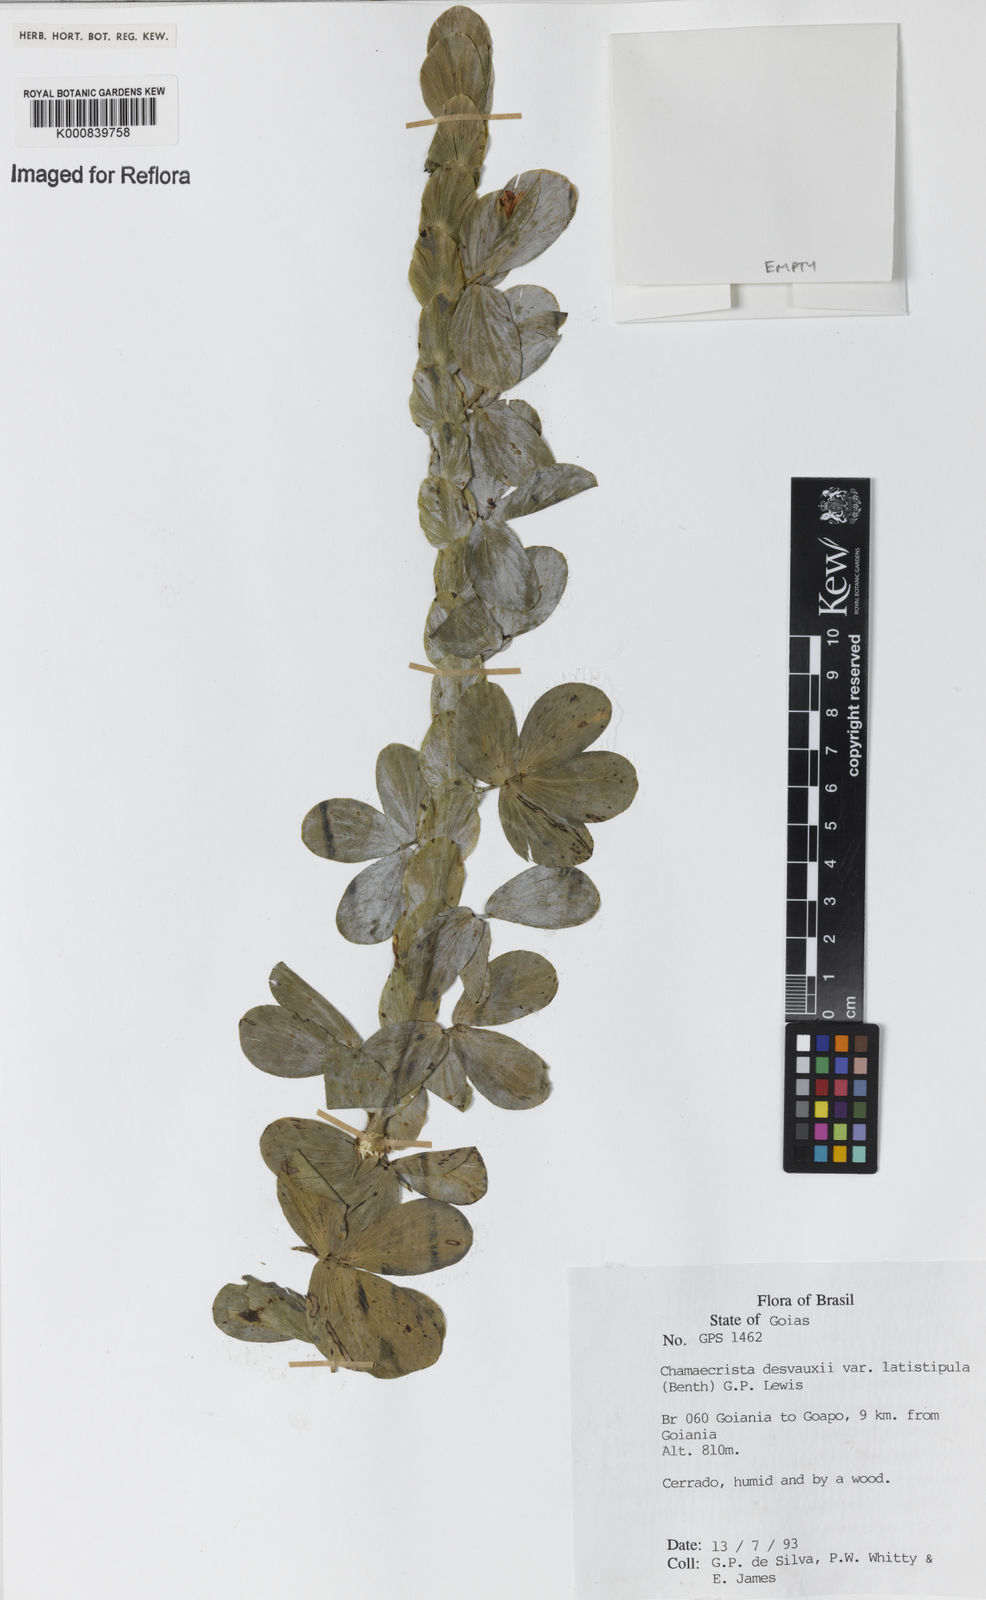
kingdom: Plantae
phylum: Tracheophyta
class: Magnoliopsida
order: Fabales
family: Fabaceae
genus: Chamaecrista
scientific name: Chamaecrista desvauxii
